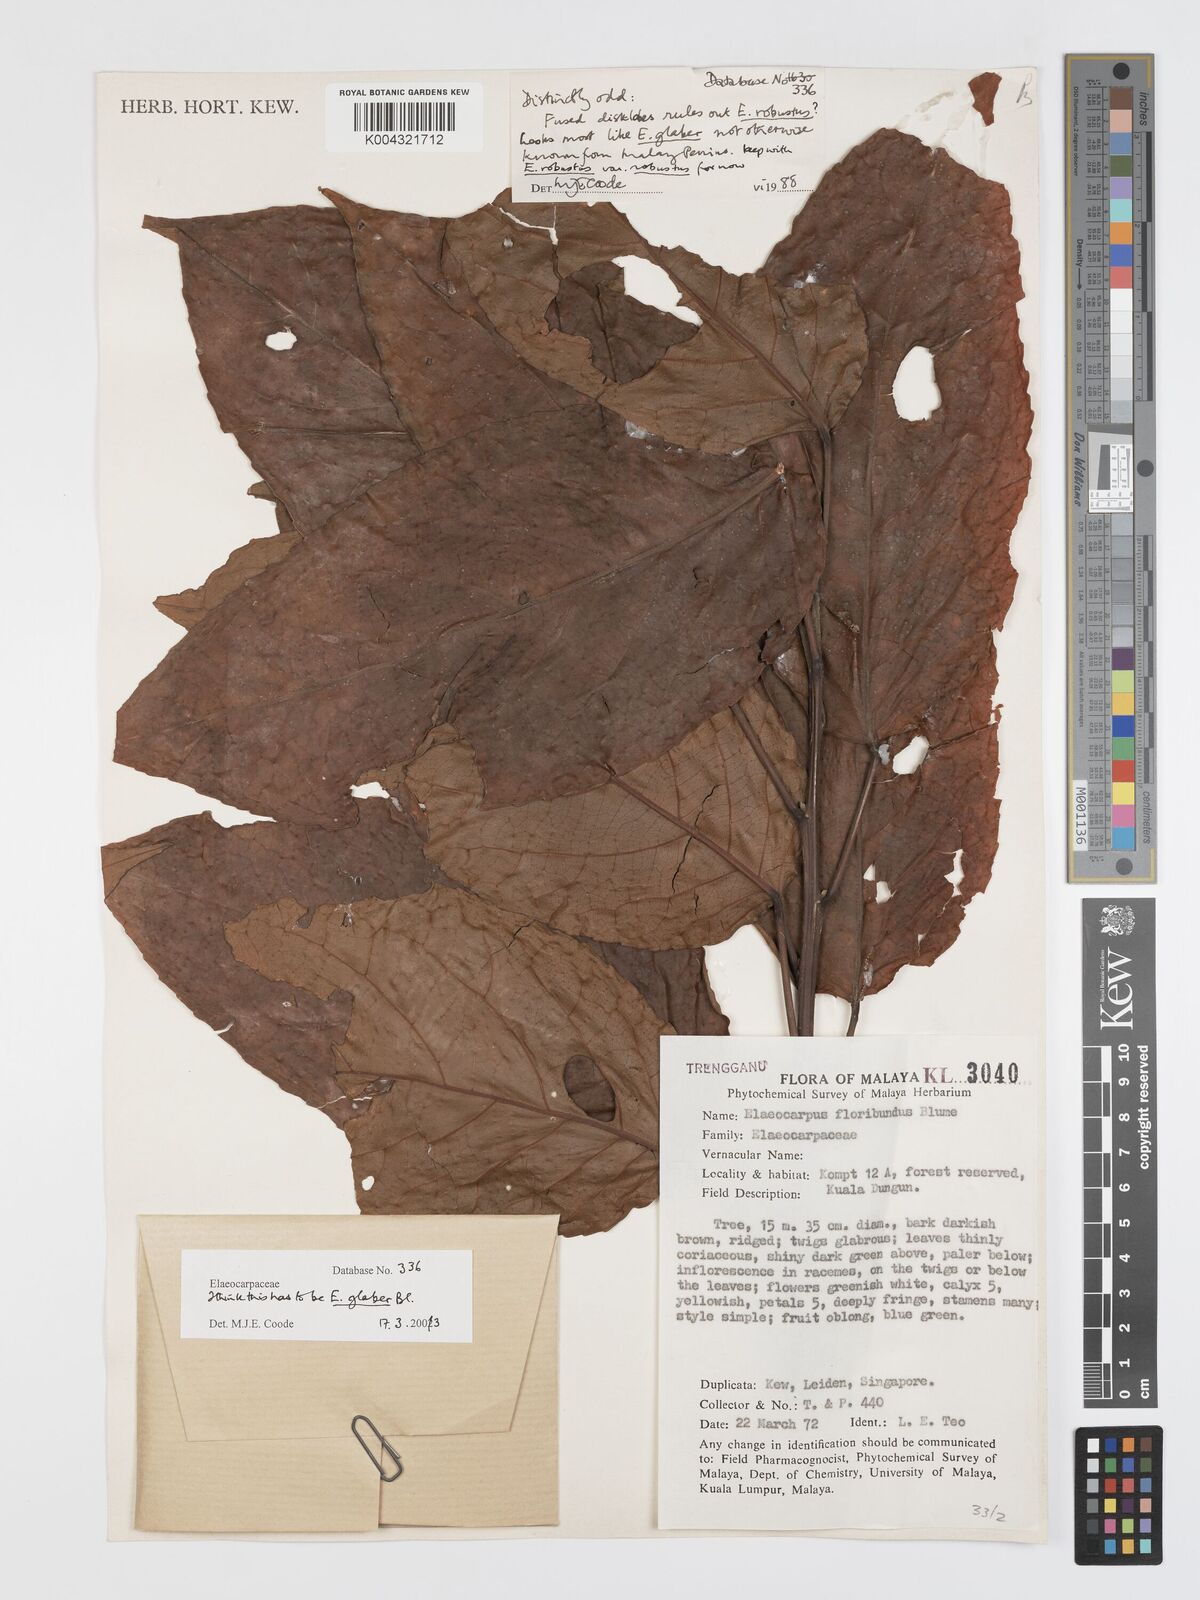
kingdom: Plantae
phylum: Tracheophyta
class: Magnoliopsida
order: Oxalidales
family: Elaeocarpaceae
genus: Elaeocarpus
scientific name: Elaeocarpus glaber
